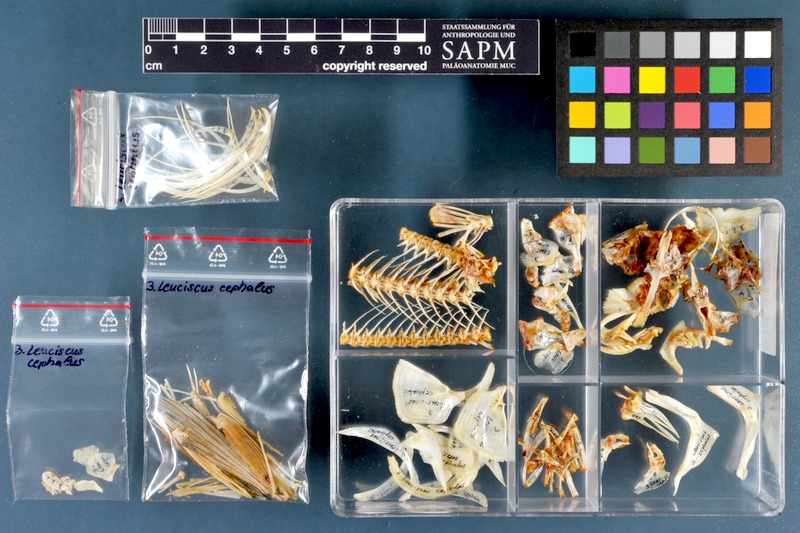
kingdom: Animalia
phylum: Chordata
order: Cypriniformes
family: Cyprinidae
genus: Squalius
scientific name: Squalius cephalus
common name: Chub
